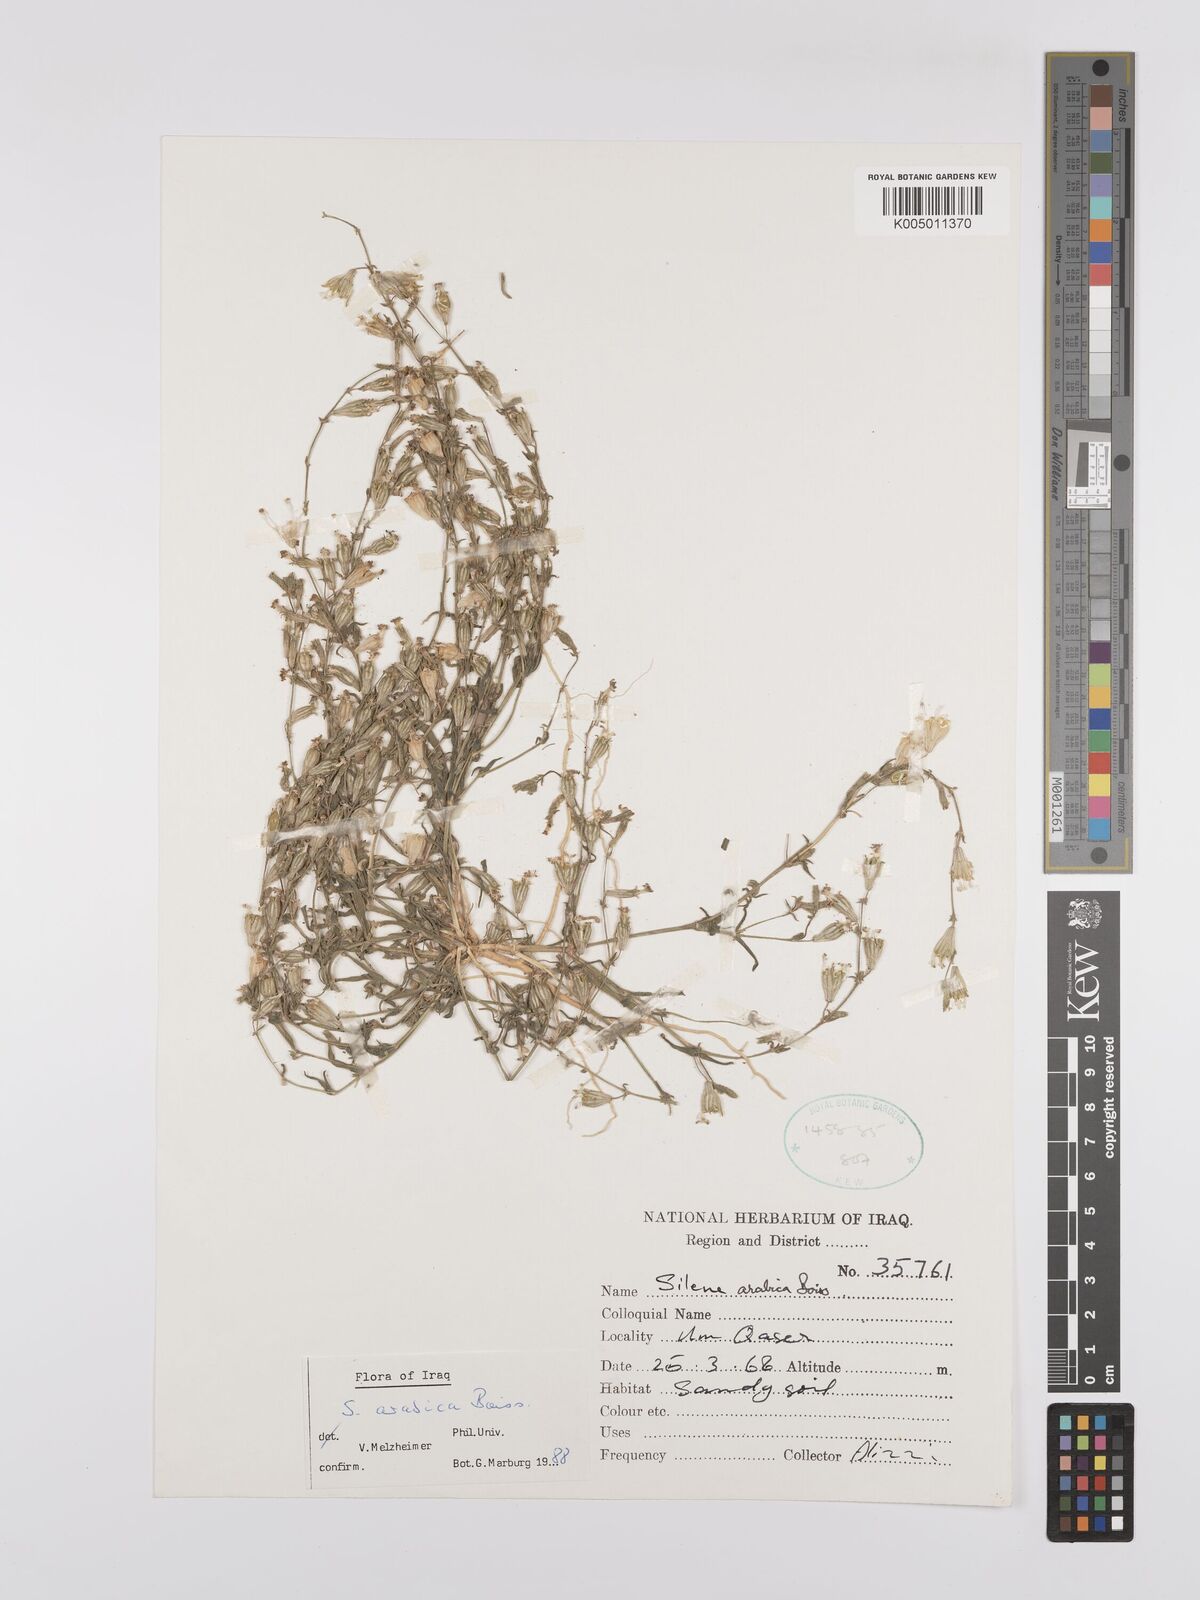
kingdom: Plantae
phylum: Tracheophyta
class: Magnoliopsida
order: Caryophyllales
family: Caryophyllaceae
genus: Silene
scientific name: Silene arabica
